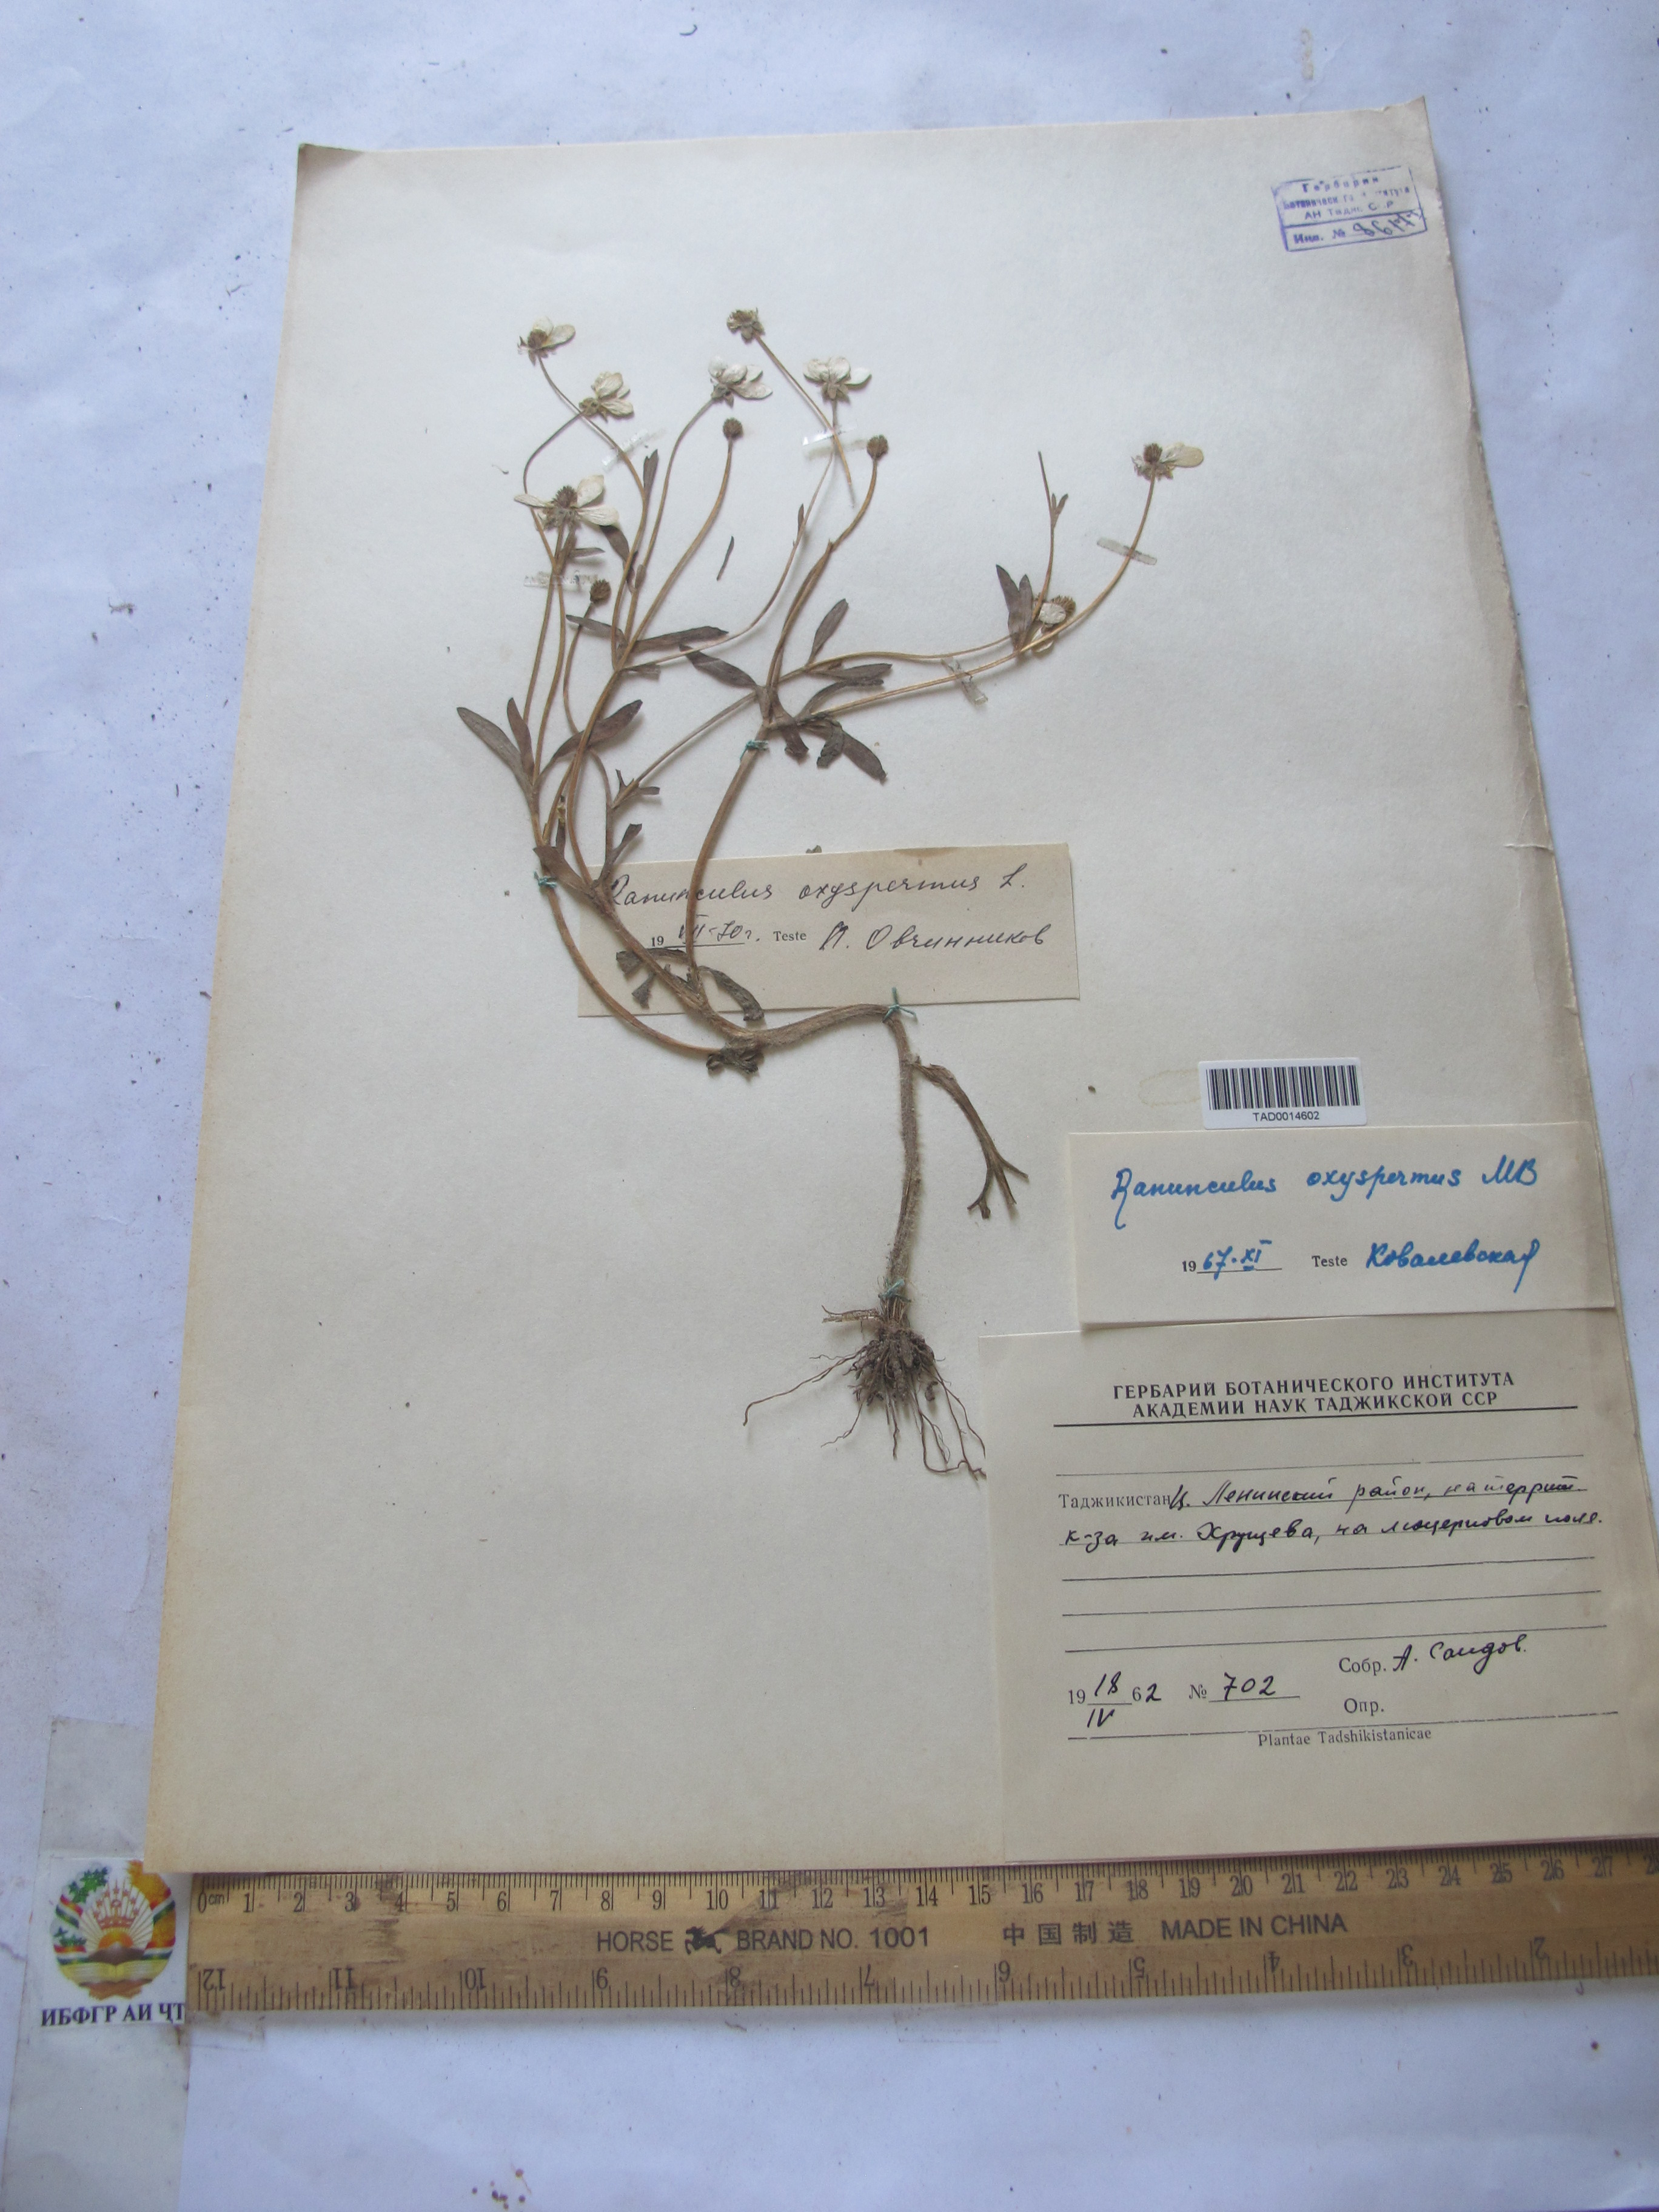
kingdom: Plantae
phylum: Tracheophyta
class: Magnoliopsida
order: Ranunculales
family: Ranunculaceae
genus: Ranunculus
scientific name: Ranunculus oxyspermus
